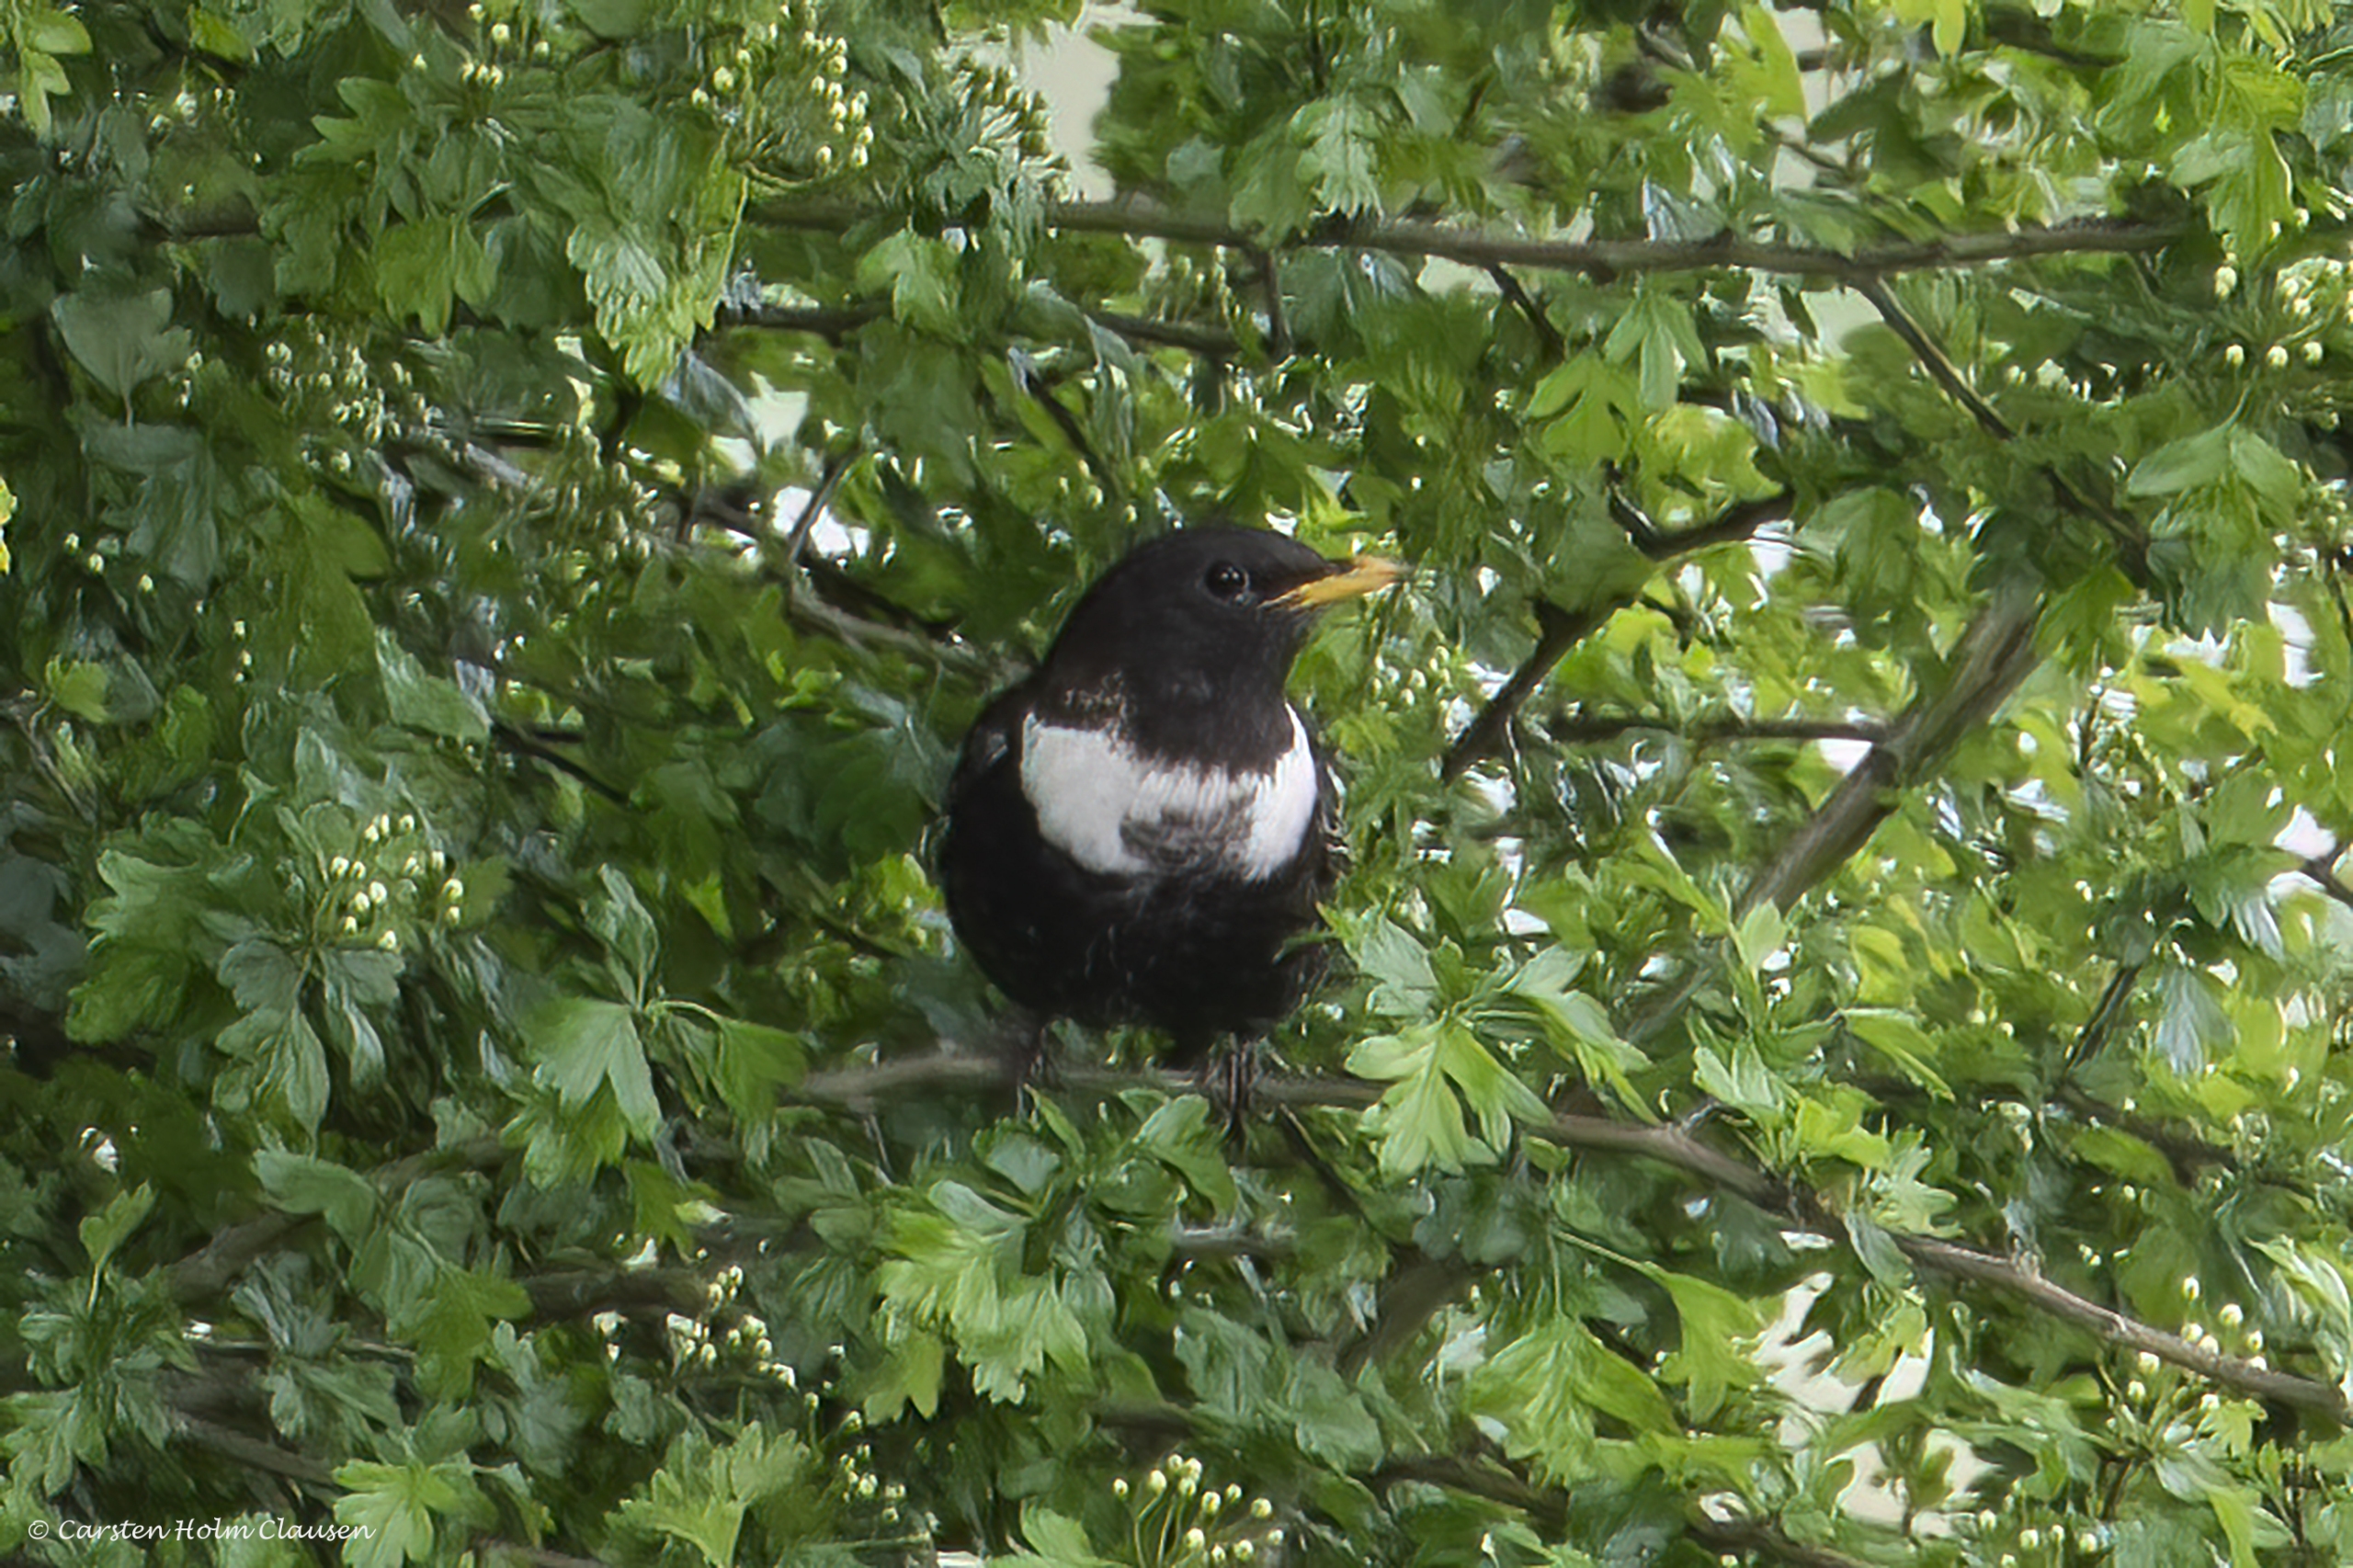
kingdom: Animalia
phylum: Chordata
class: Aves
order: Passeriformes
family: Turdidae
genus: Turdus
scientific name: Turdus torquatus
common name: Ringdrossel
